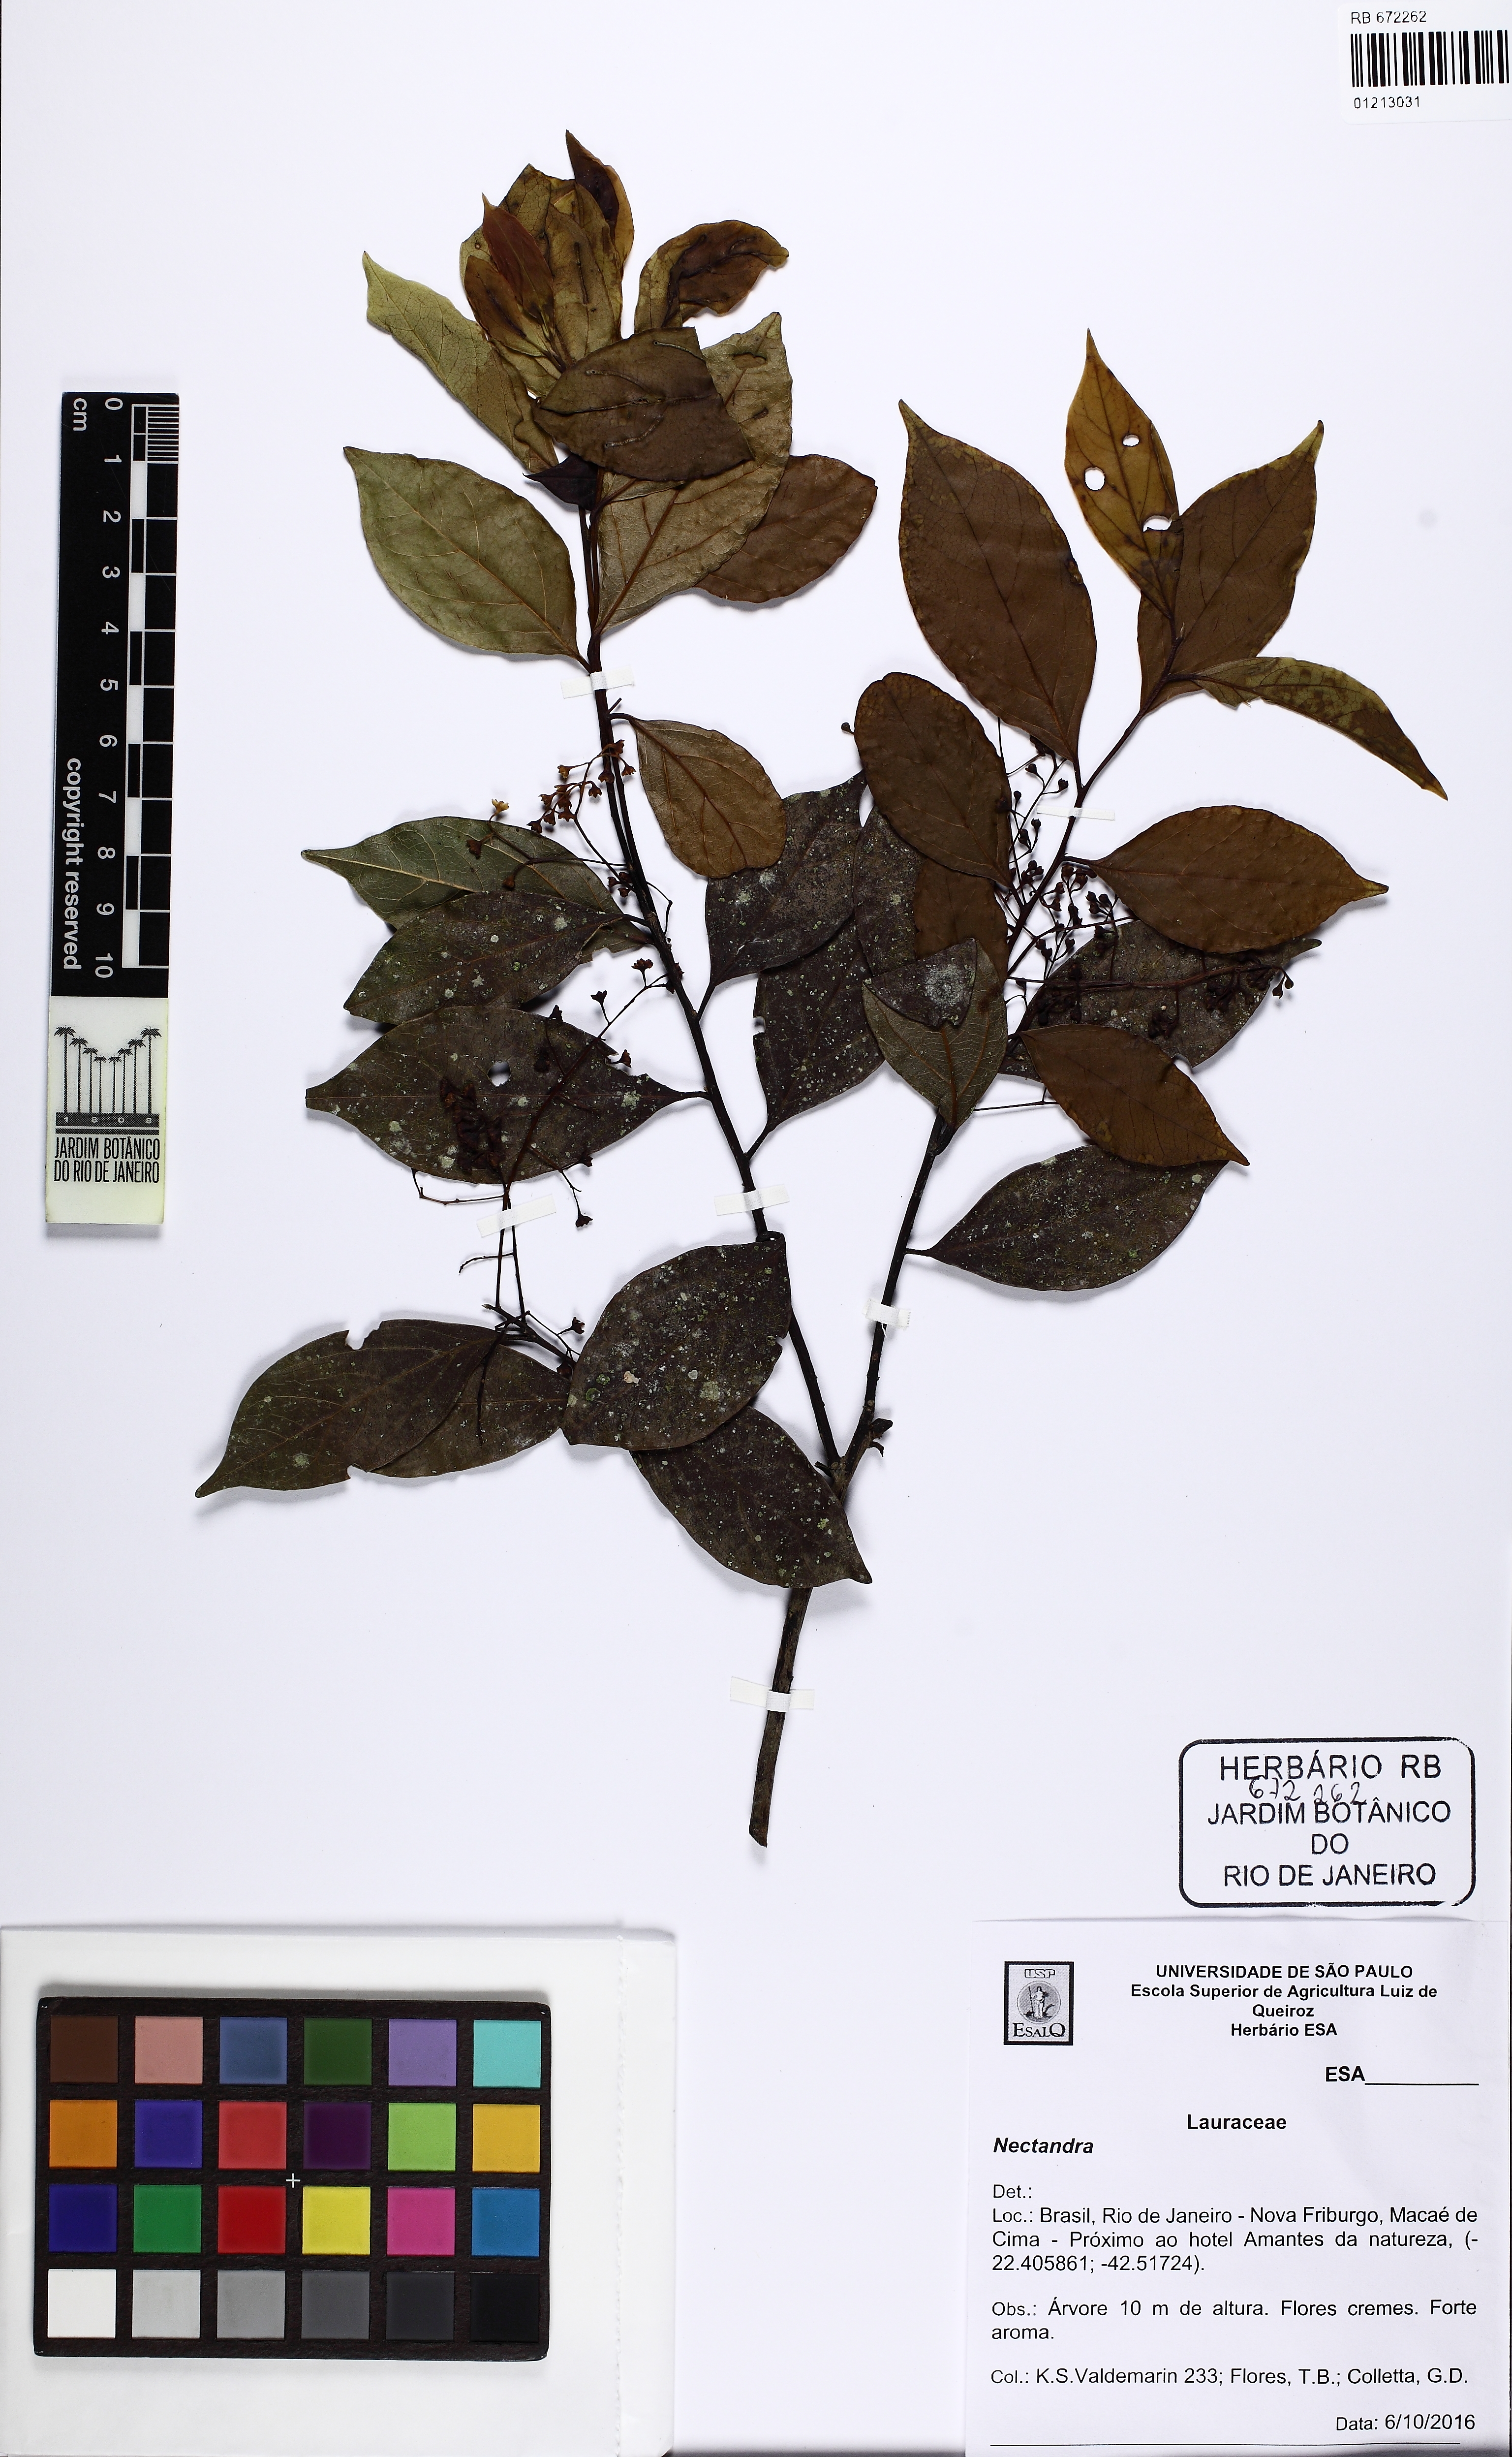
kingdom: Plantae
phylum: Tracheophyta
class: Magnoliopsida
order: Laurales
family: Lauraceae
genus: Nectandra
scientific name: Nectandra
